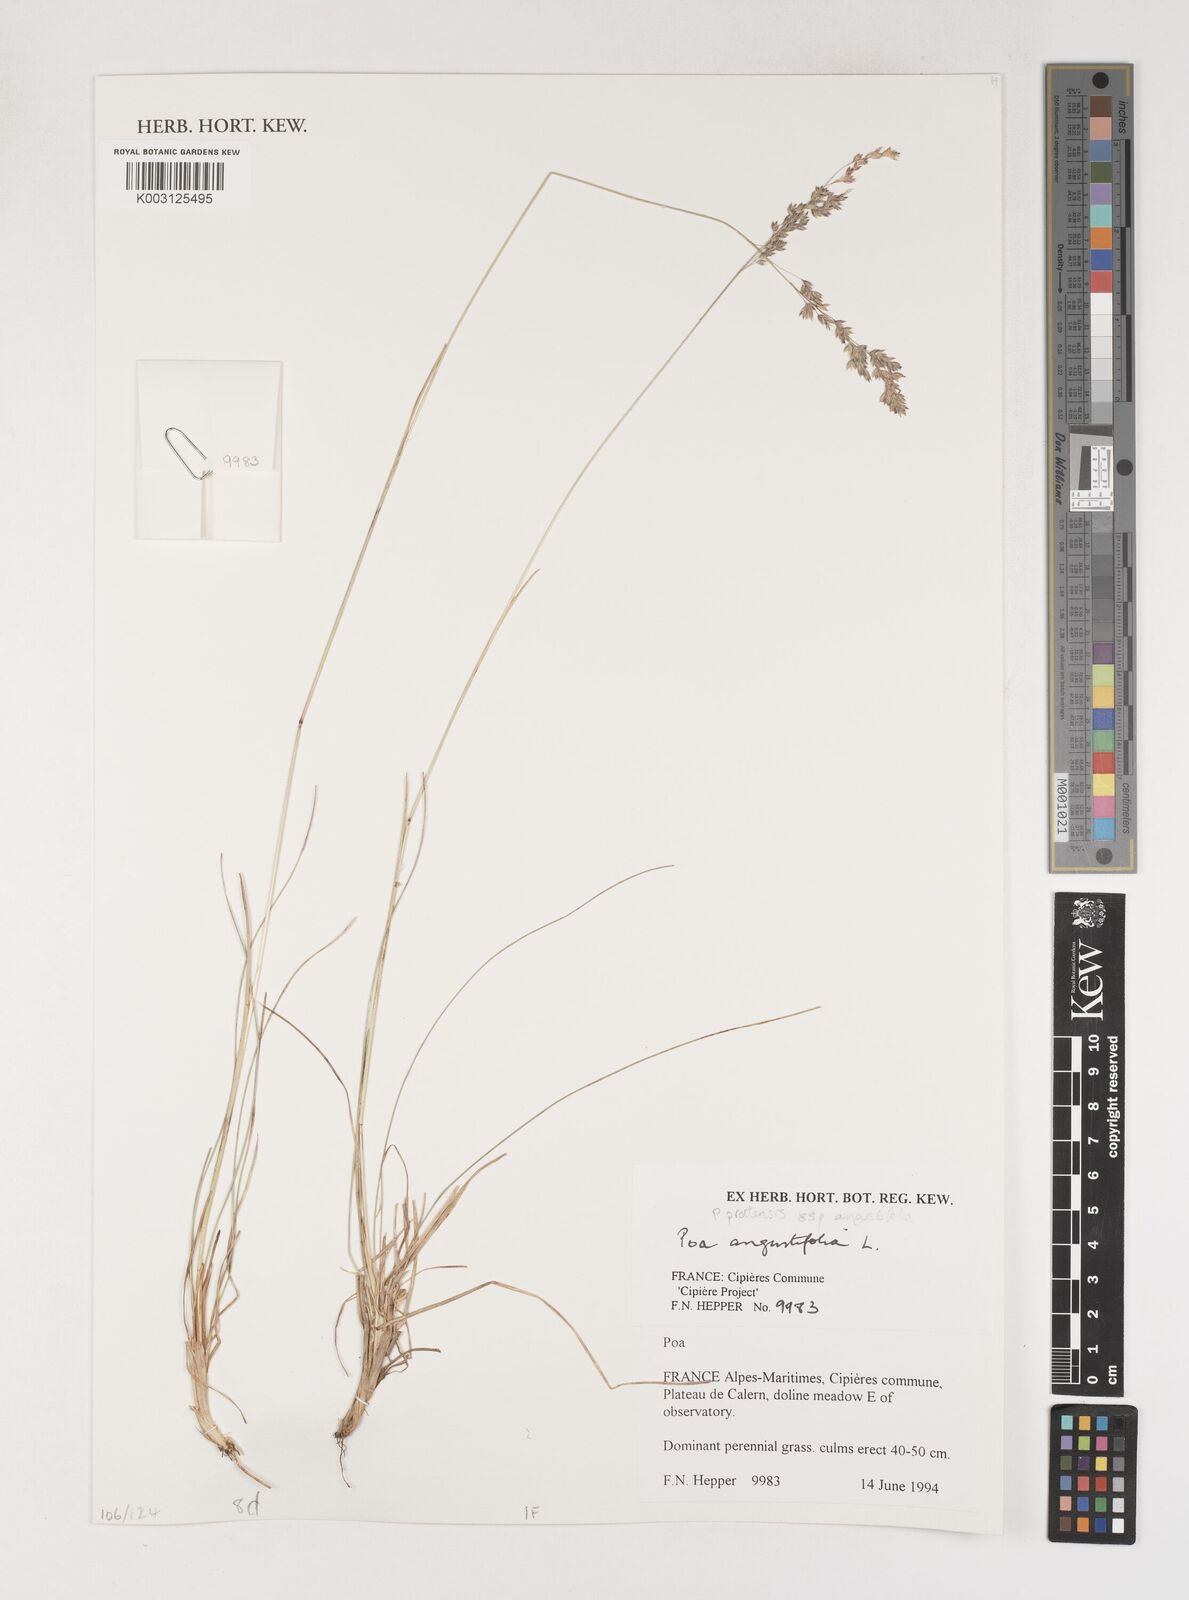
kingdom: Plantae
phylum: Tracheophyta
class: Liliopsida
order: Poales
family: Poaceae
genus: Poa
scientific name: Poa angustifolia
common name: Narrow-leaved meadow-grass
